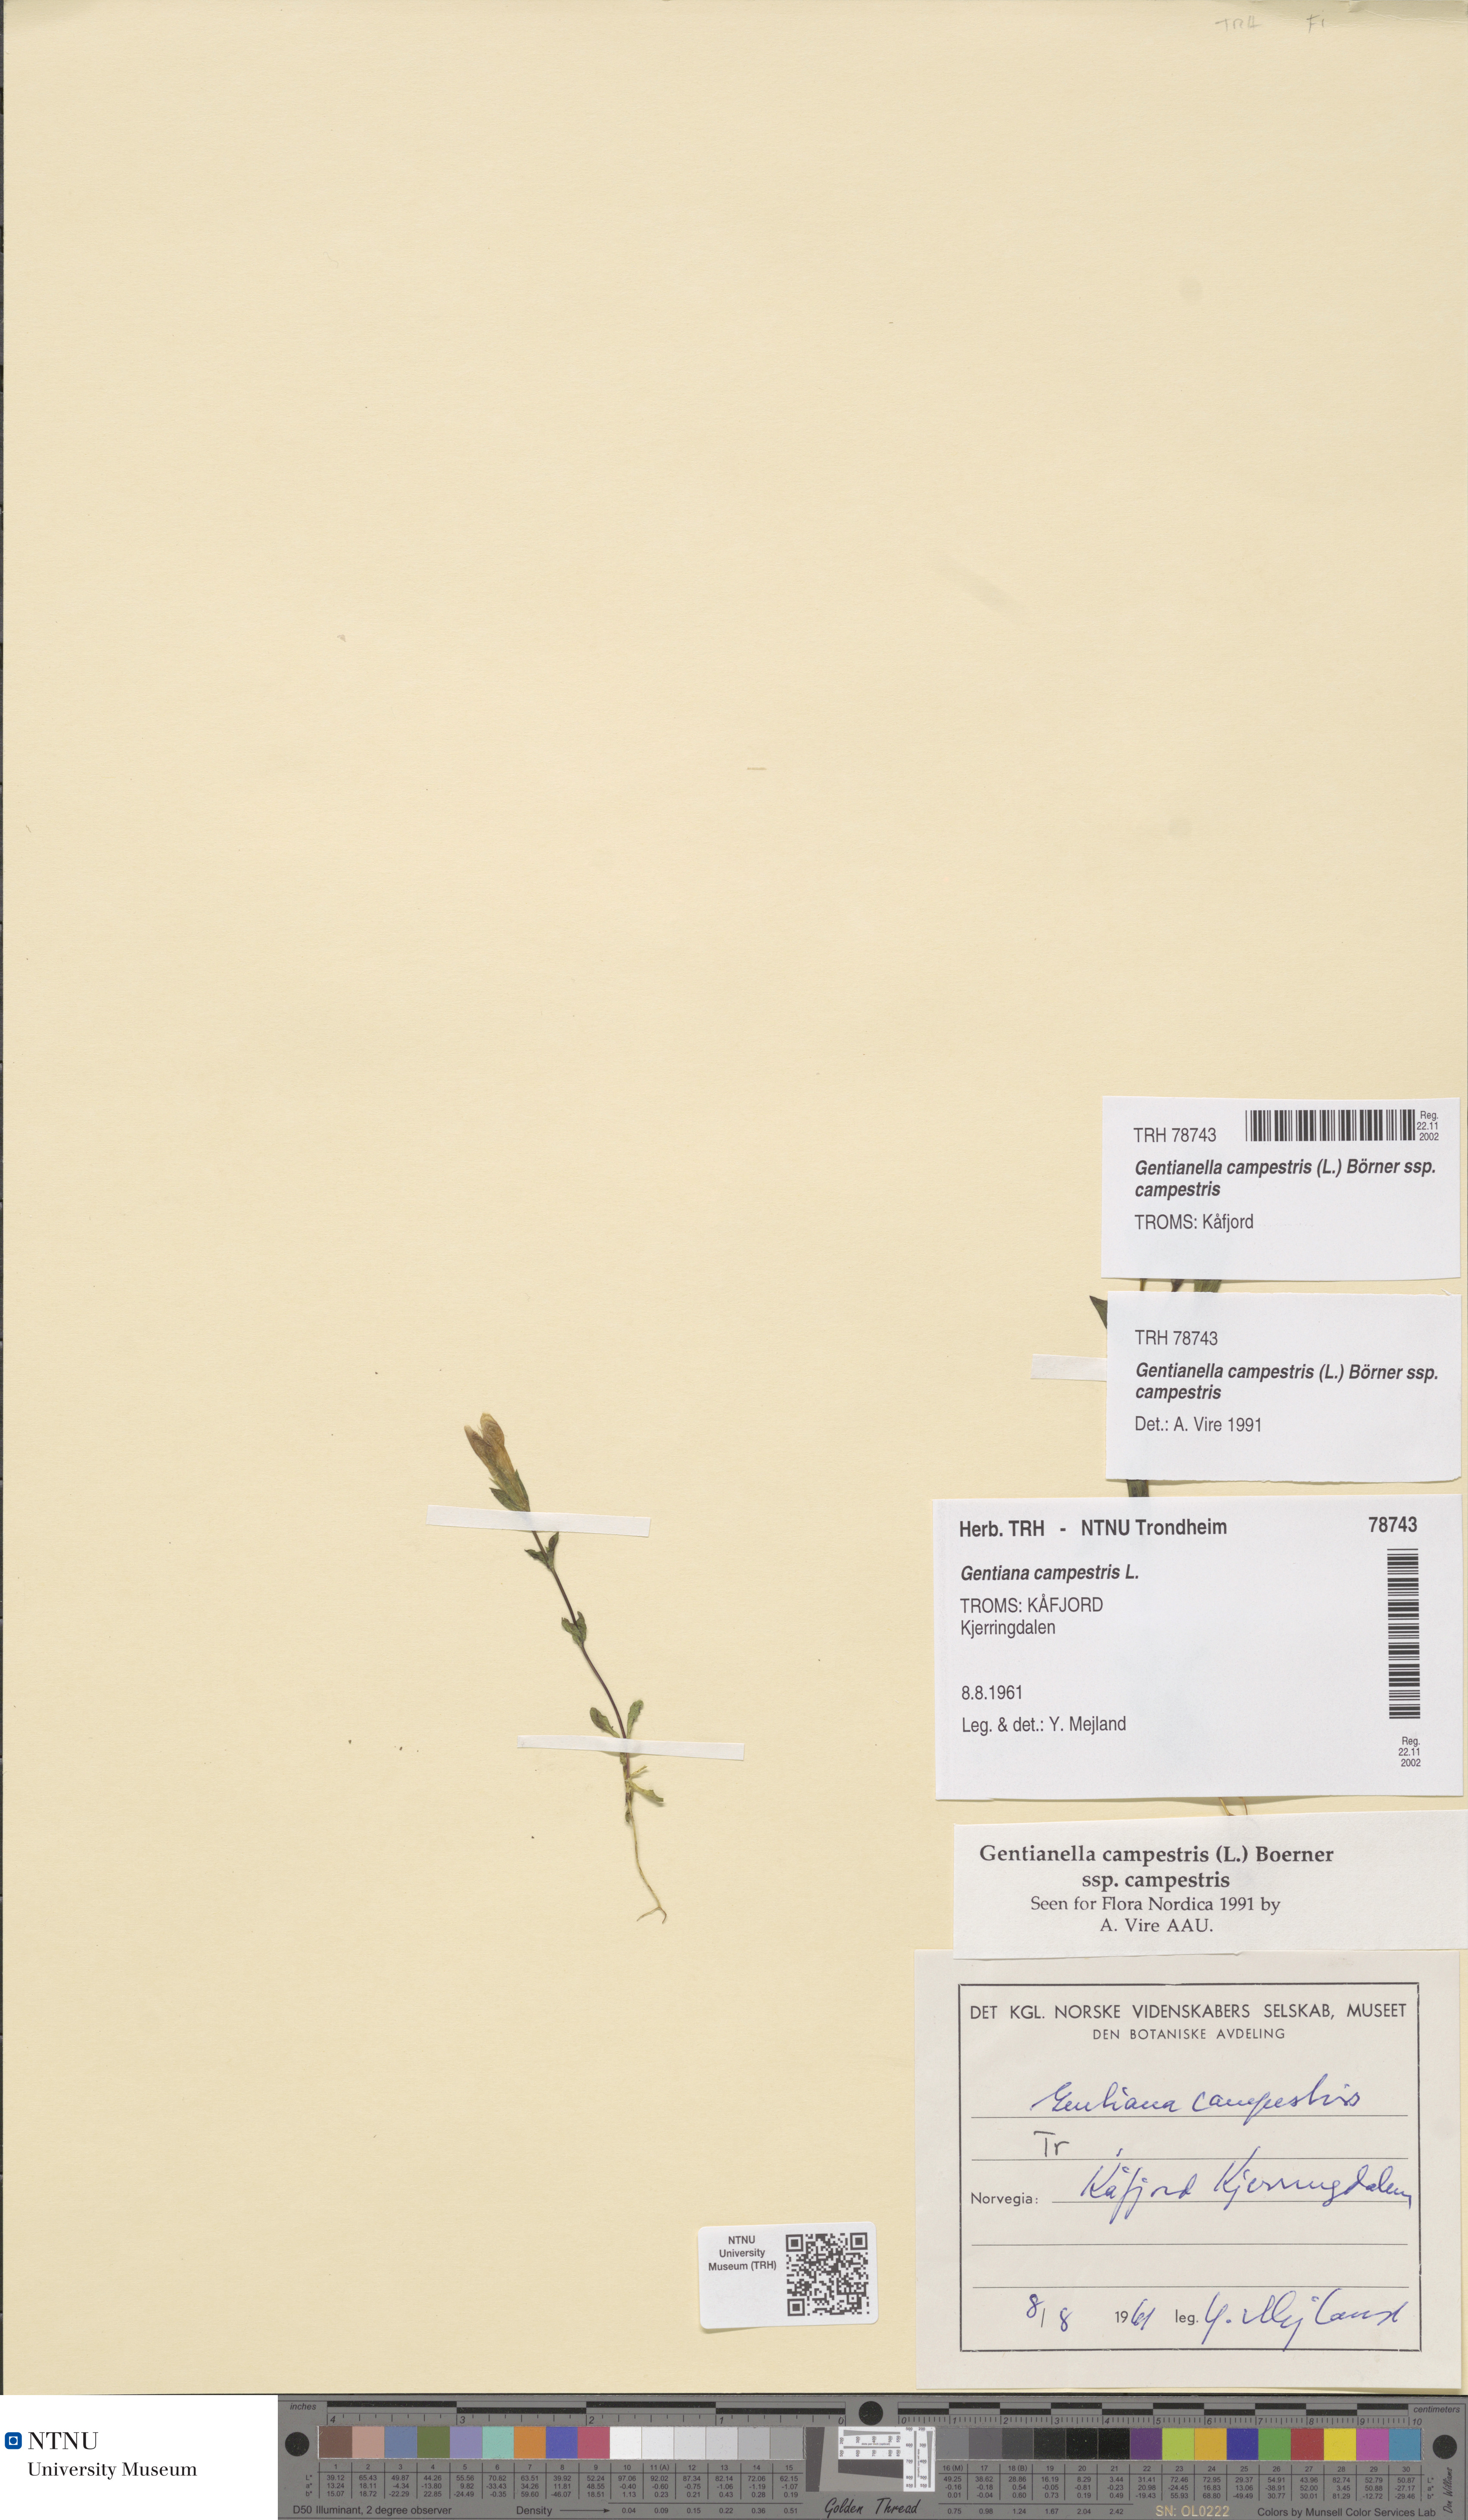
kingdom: Plantae
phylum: Tracheophyta
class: Magnoliopsida
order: Gentianales
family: Gentianaceae
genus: Gentianella
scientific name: Gentianella campestris
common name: Field gentian
